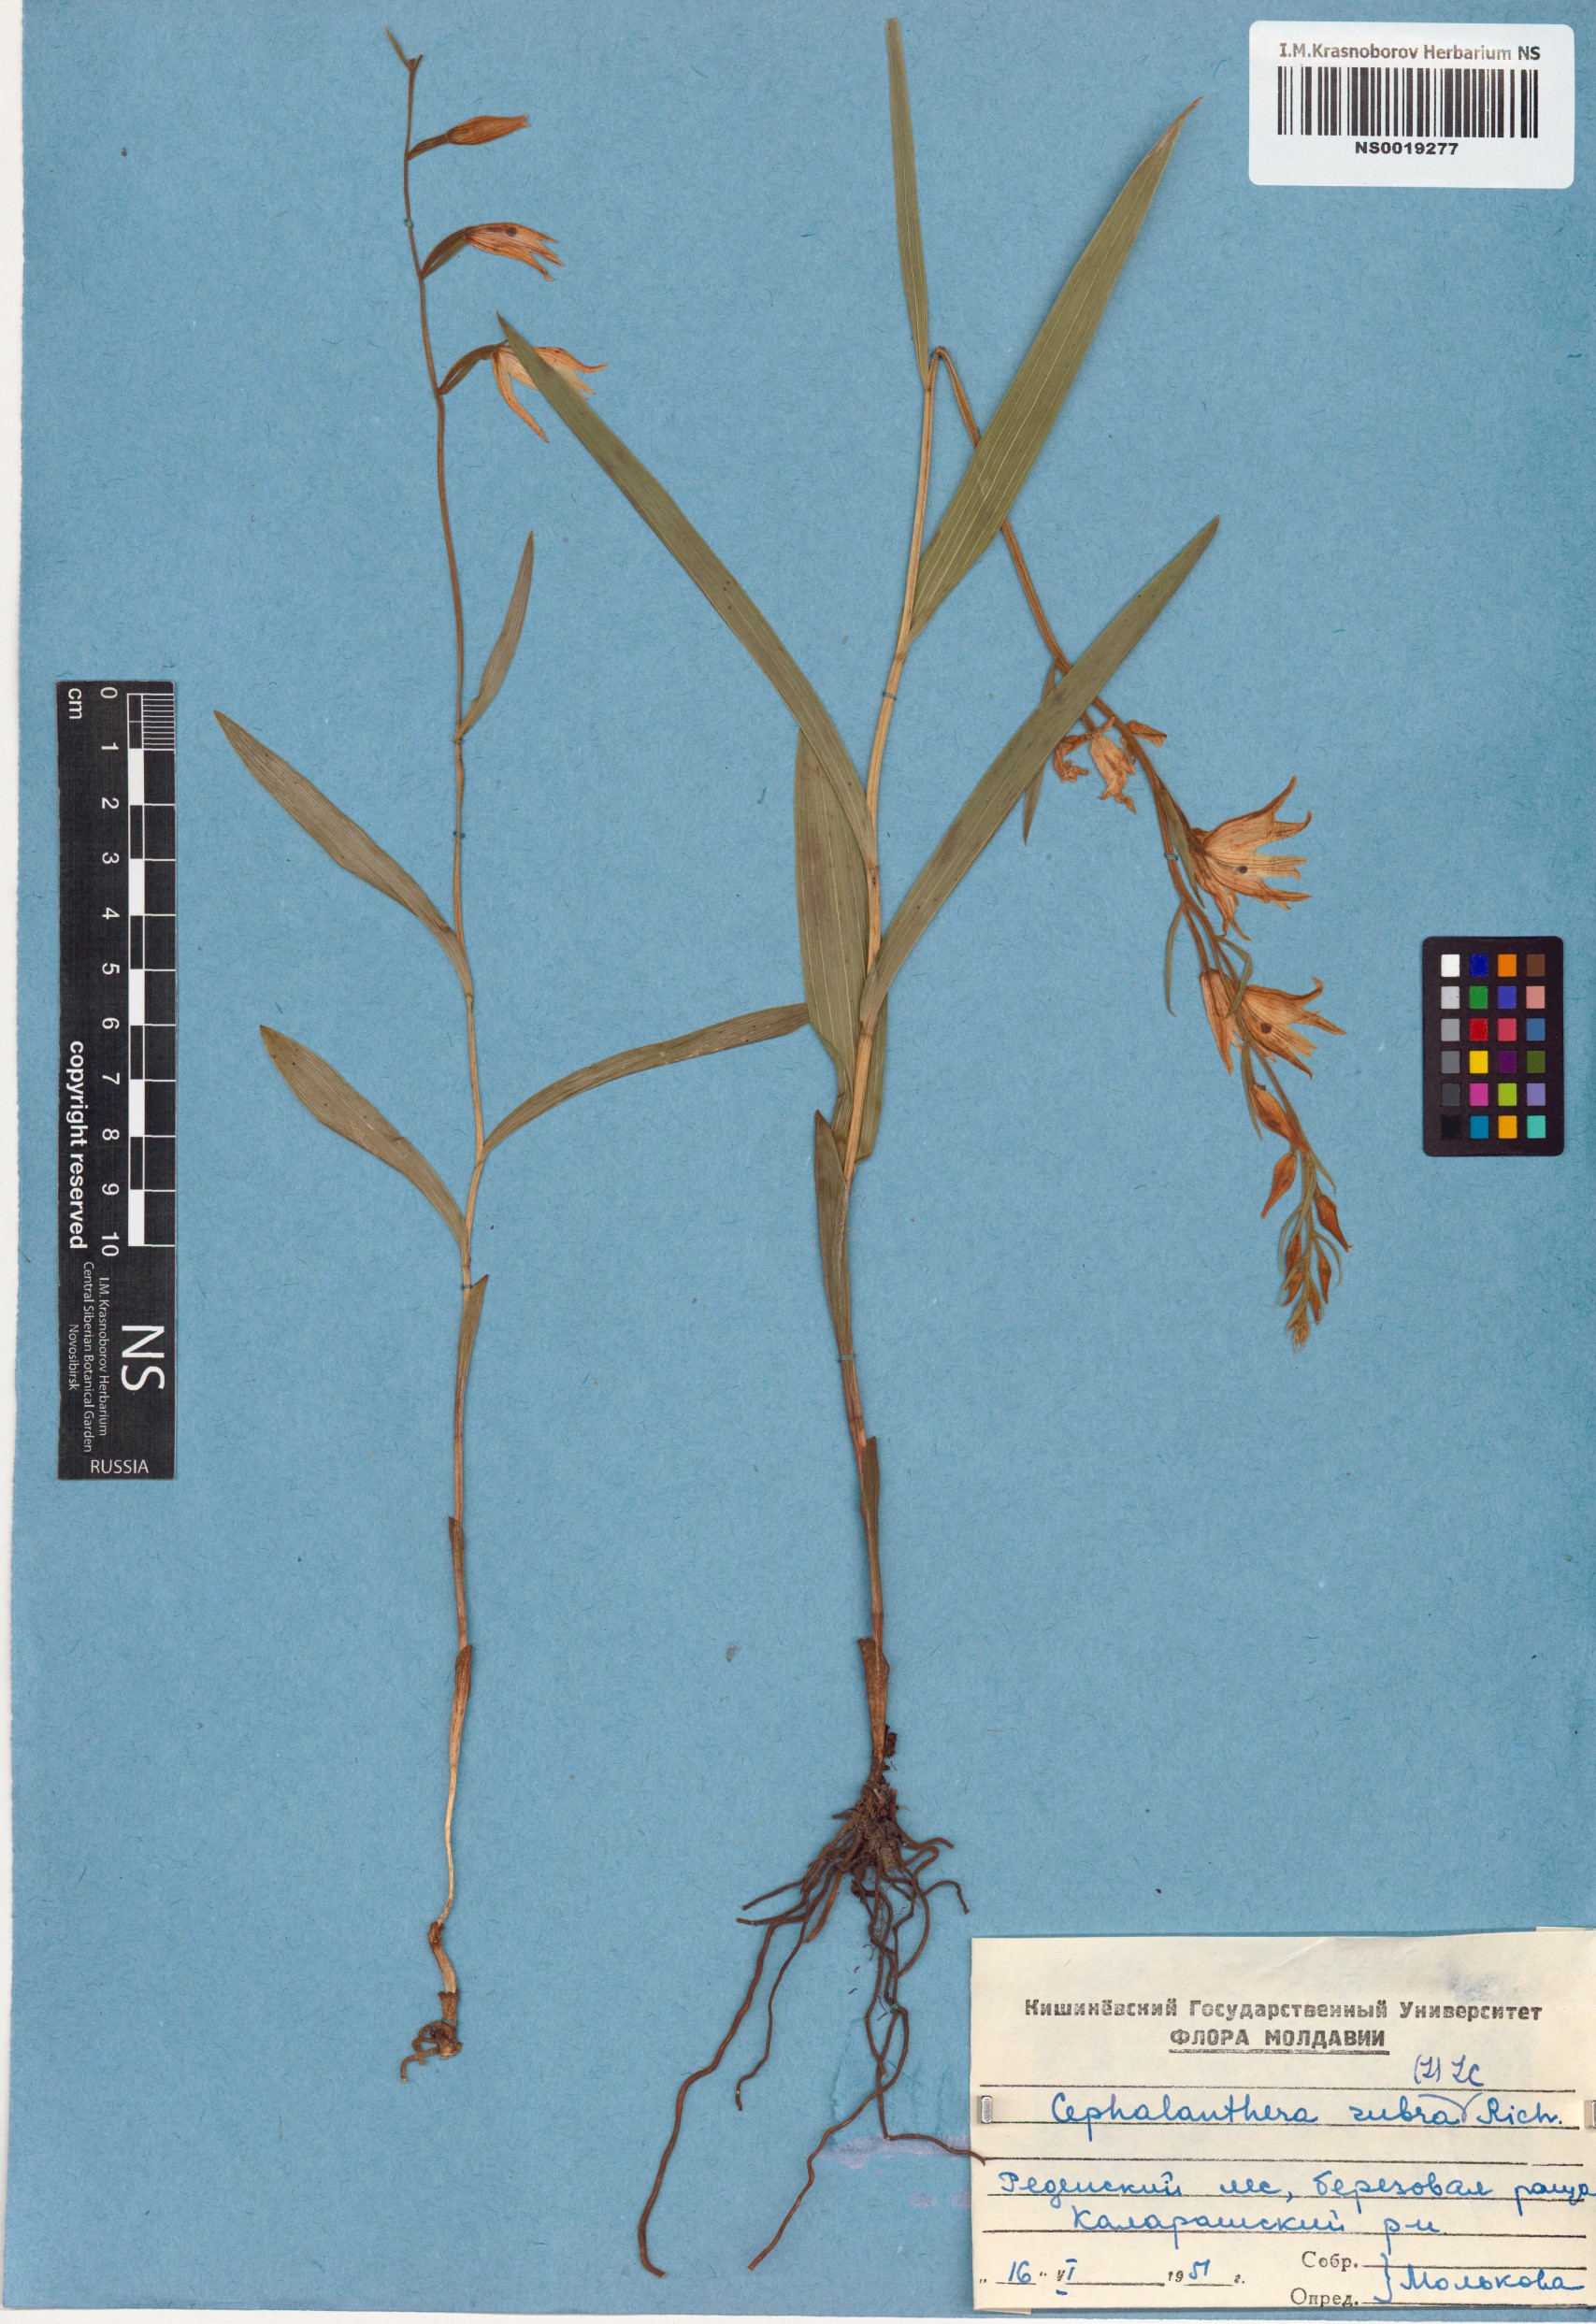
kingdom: Plantae
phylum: Tracheophyta
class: Liliopsida
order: Asparagales
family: Orchidaceae
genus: Cephalanthera
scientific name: Cephalanthera rubra
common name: Red helleborine
